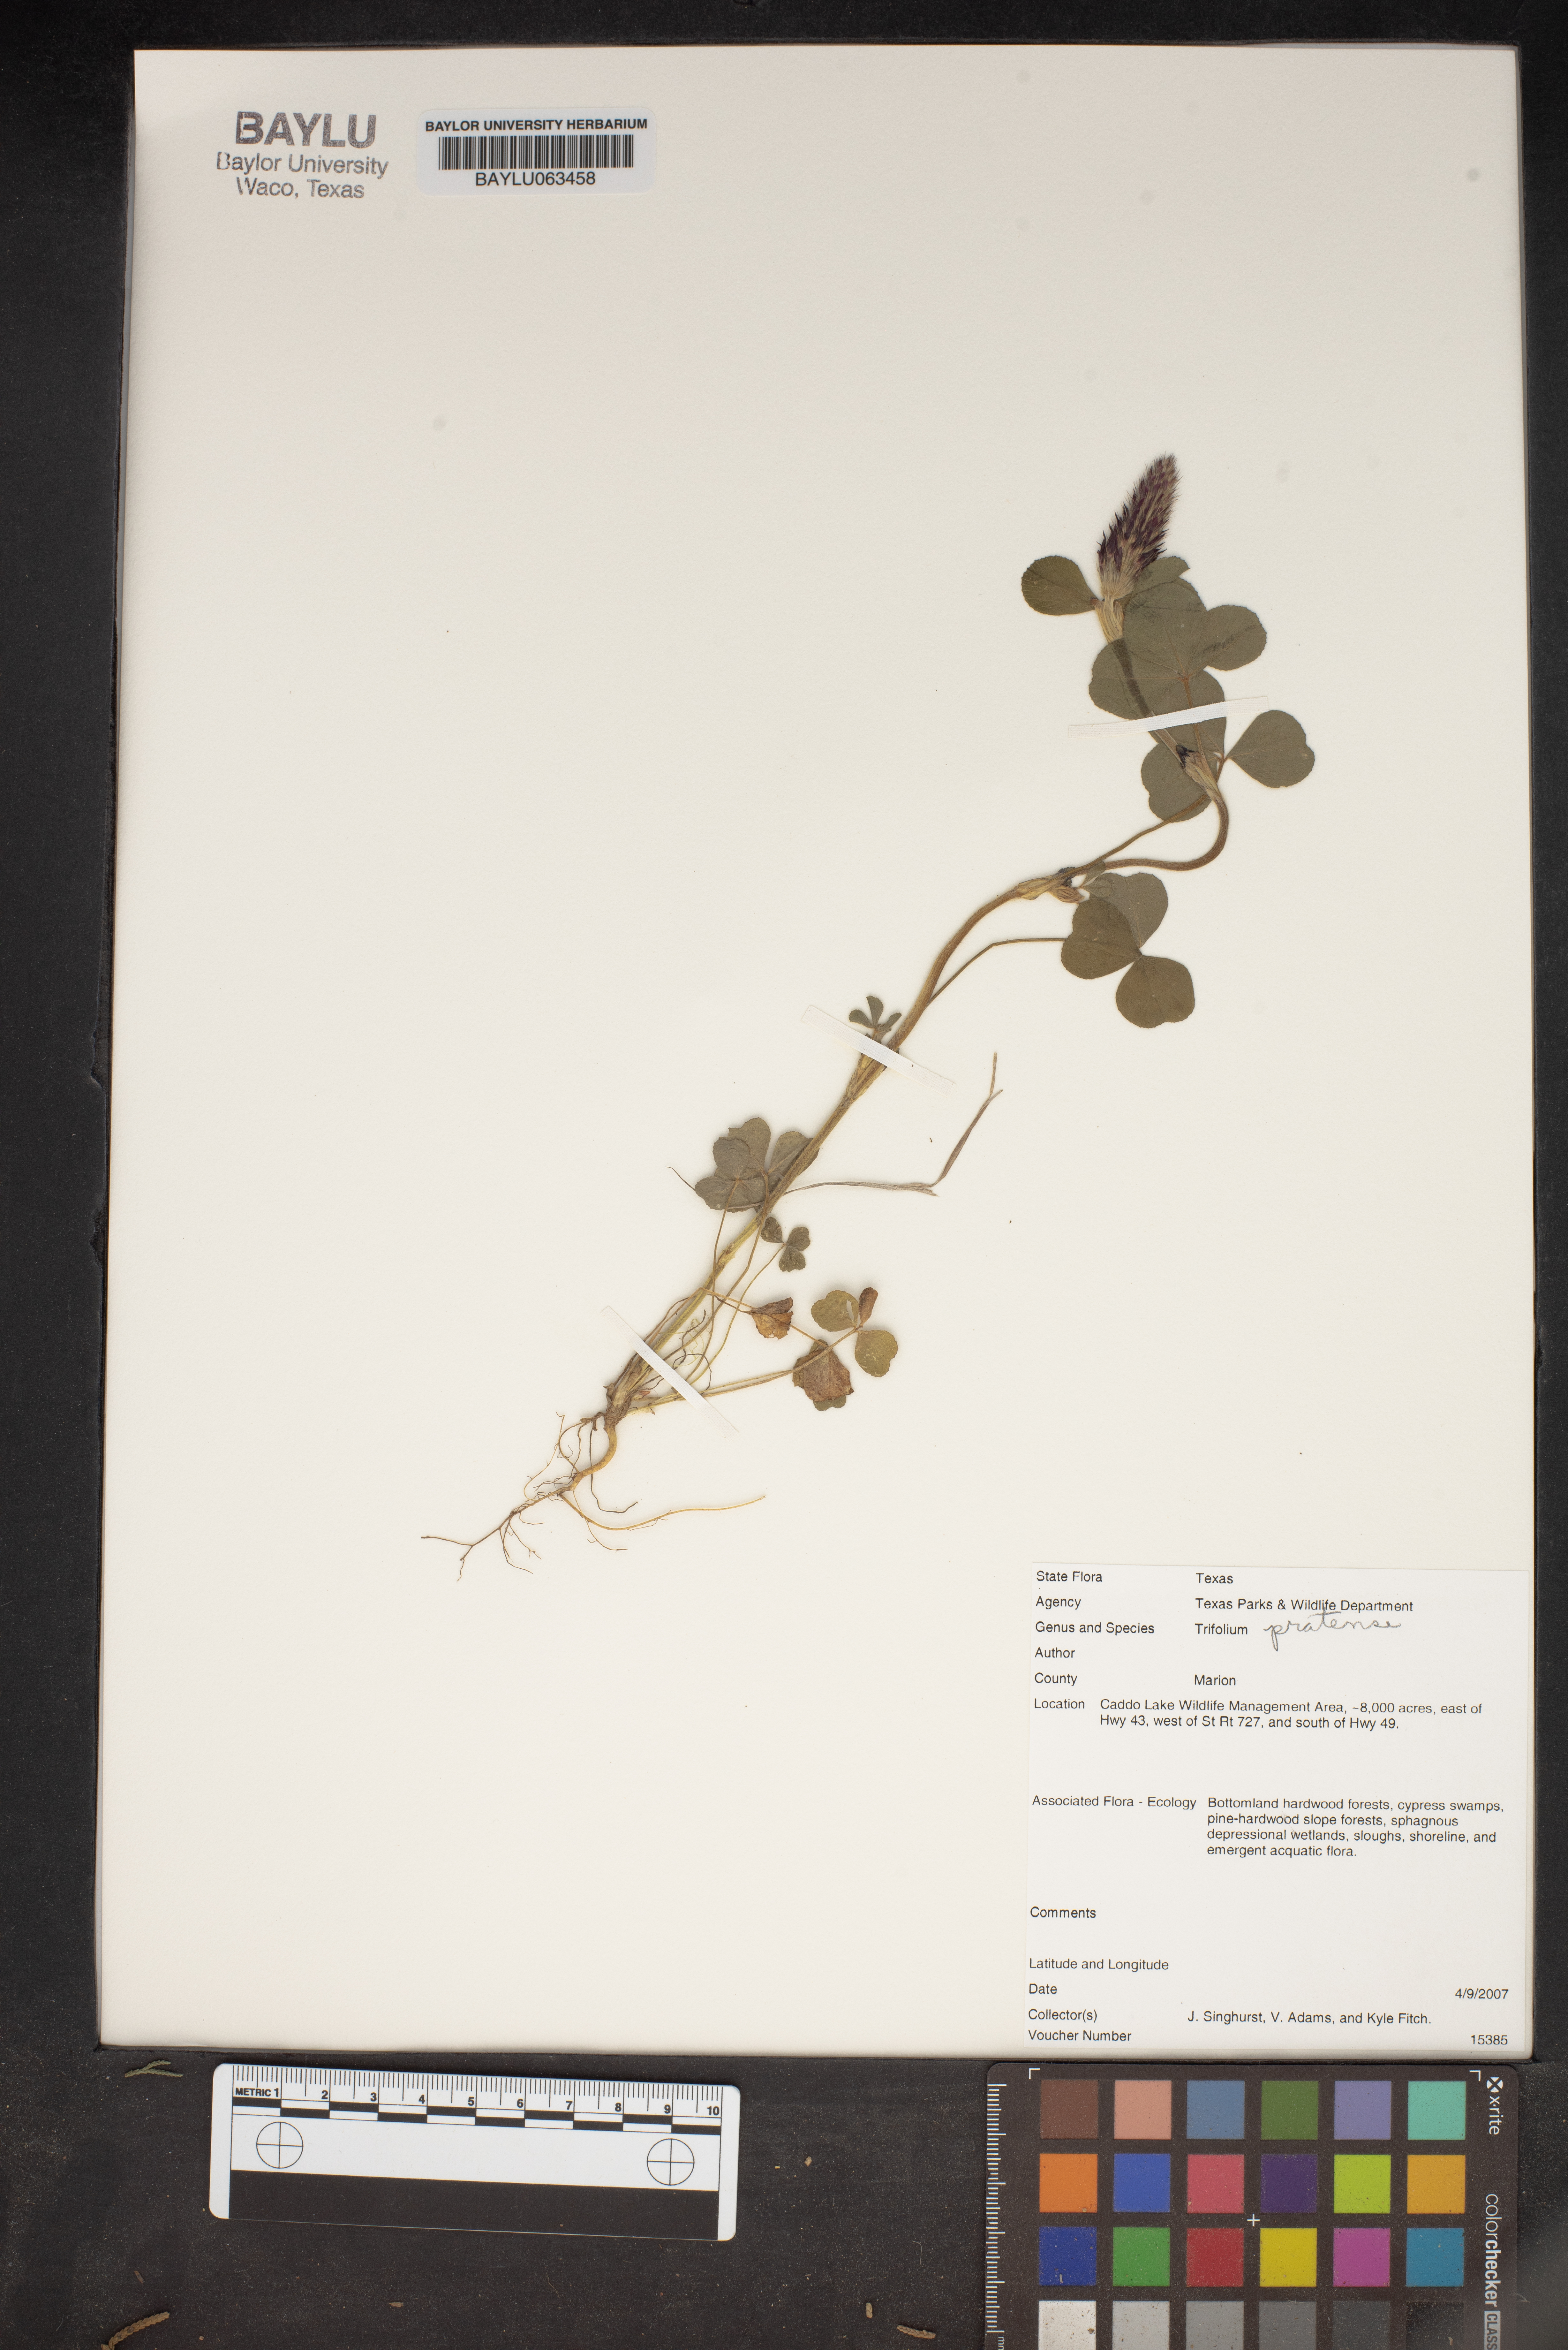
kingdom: Plantae
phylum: Tracheophyta
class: Magnoliopsida
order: Fabales
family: Fabaceae
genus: Trifolium
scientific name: Trifolium pratense
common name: Red clover
